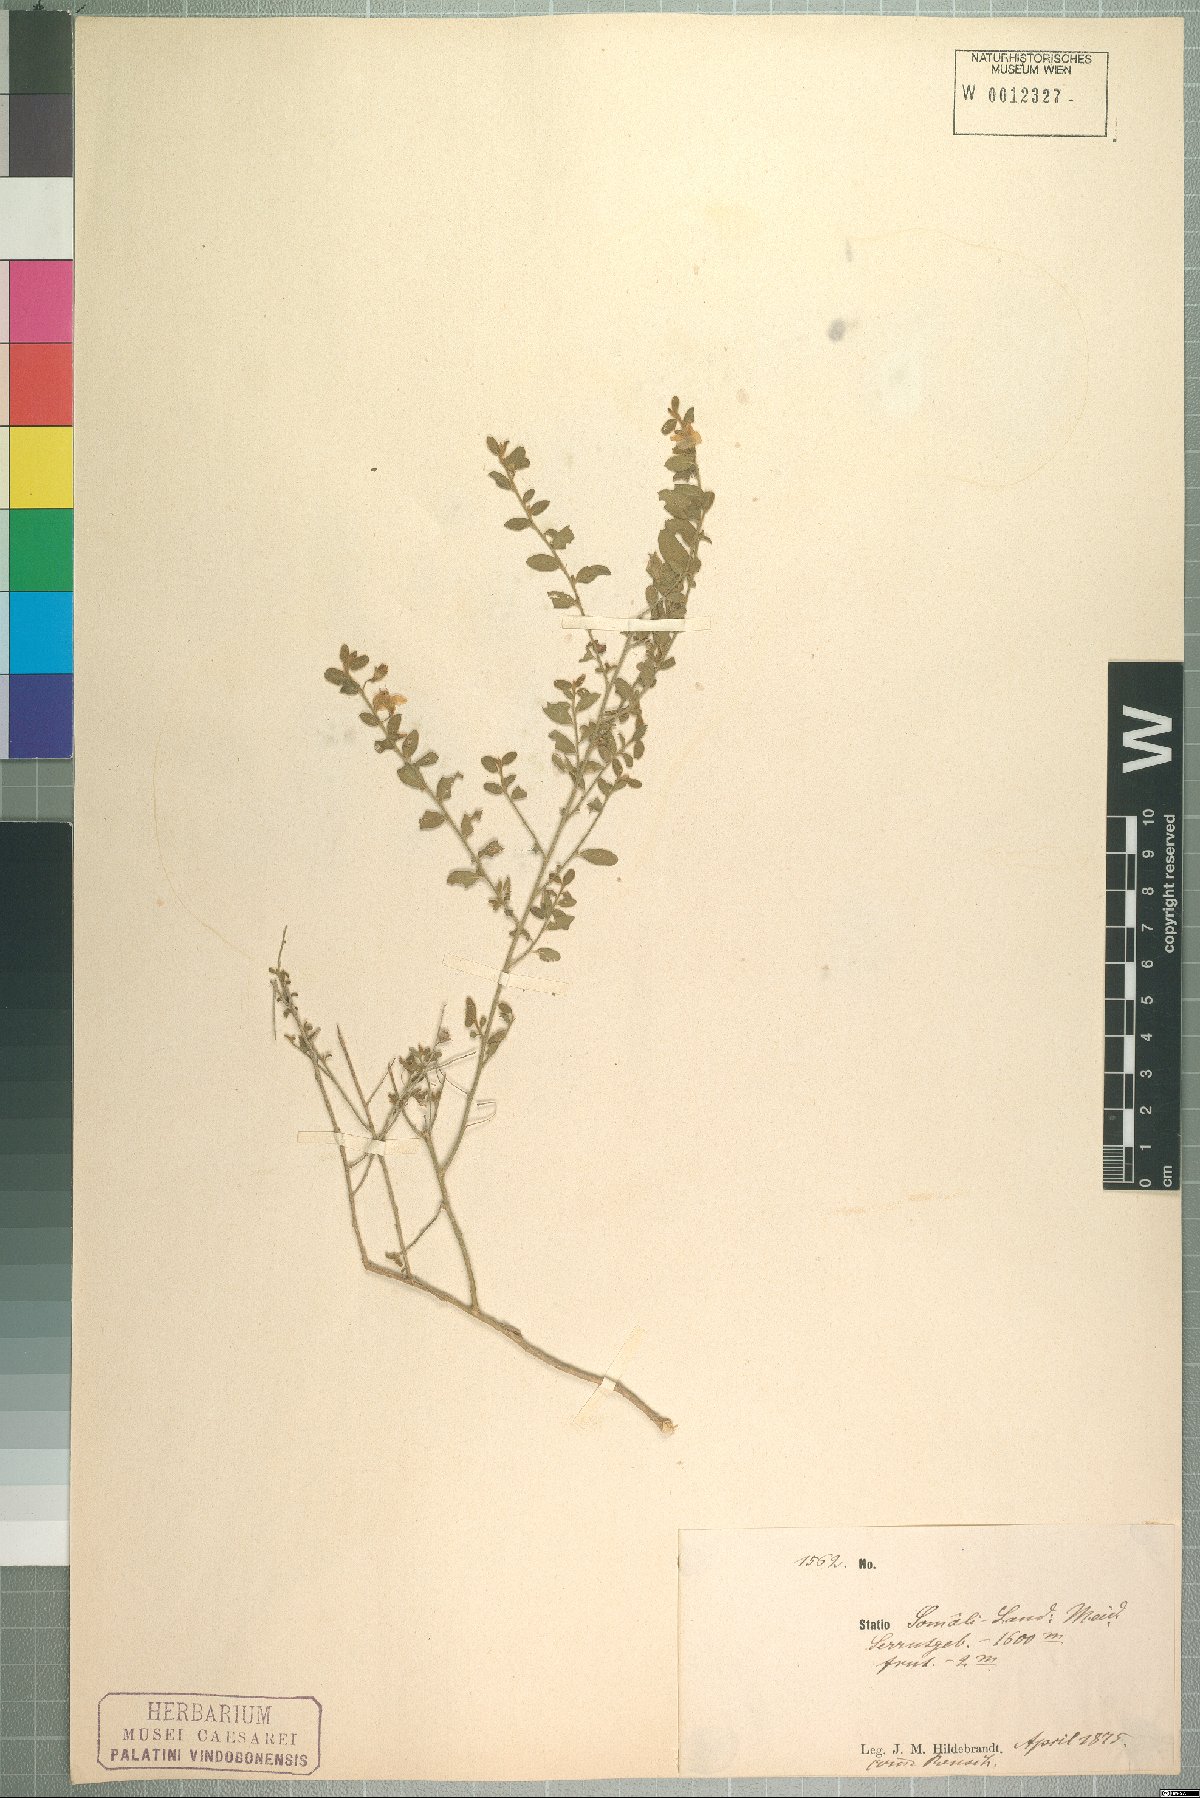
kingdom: Plantae
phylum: Tracheophyta
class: Magnoliopsida
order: Solanales
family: Convolvulaceae
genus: Seddera
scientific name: Seddera arabica
